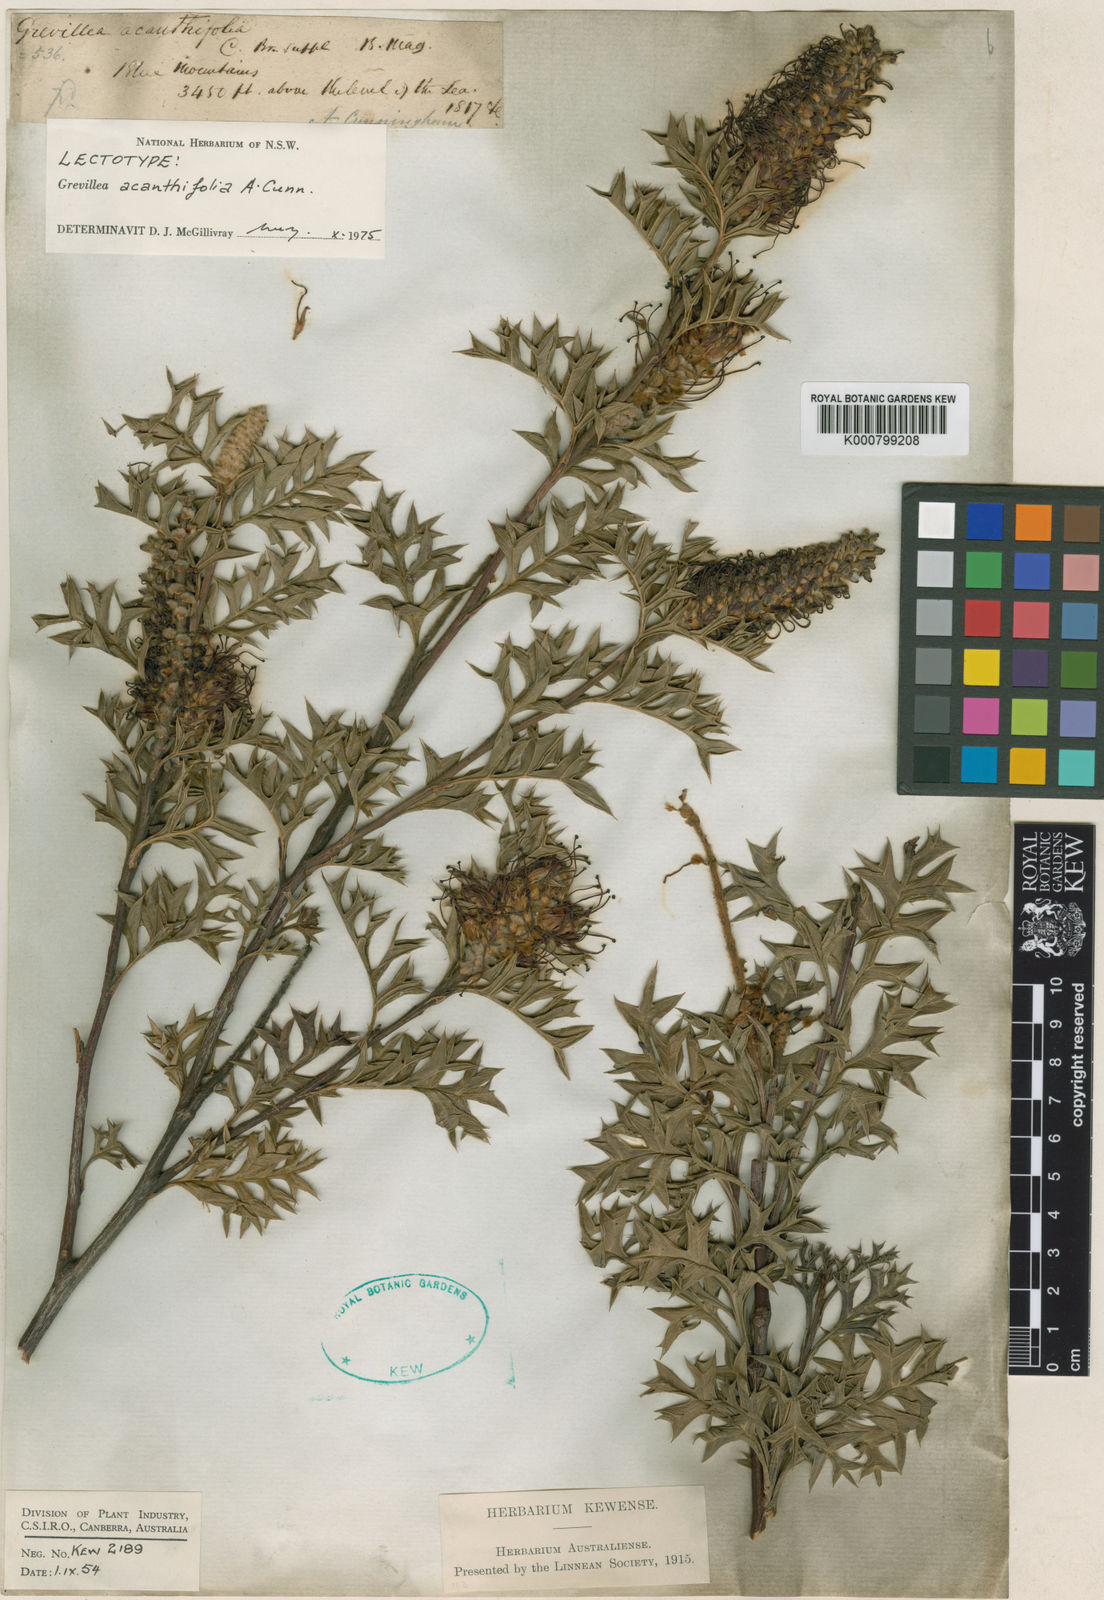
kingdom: Plantae
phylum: Tracheophyta
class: Magnoliopsida
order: Proteales
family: Proteaceae
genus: Grevillea
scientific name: Grevillea acanthifolia
